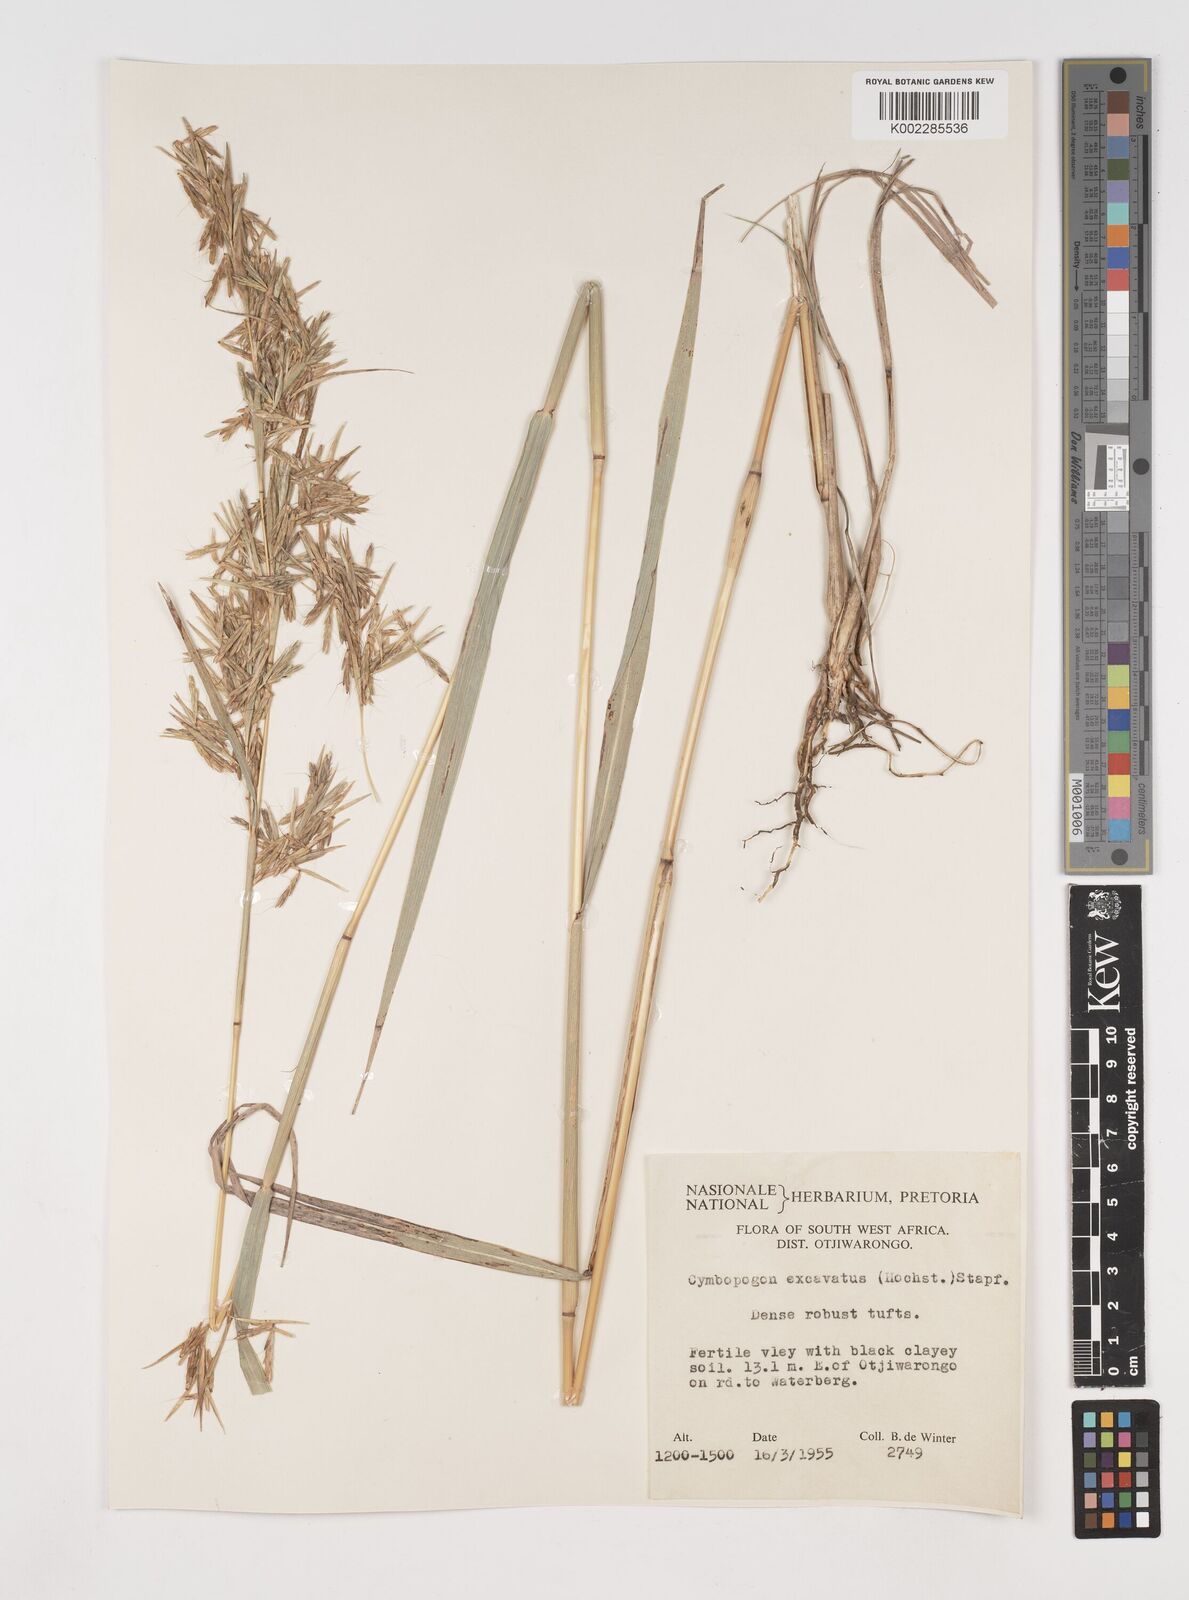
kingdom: Plantae
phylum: Tracheophyta
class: Liliopsida
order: Poales
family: Poaceae
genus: Cymbopogon
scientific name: Cymbopogon caesius
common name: Kachi grass
